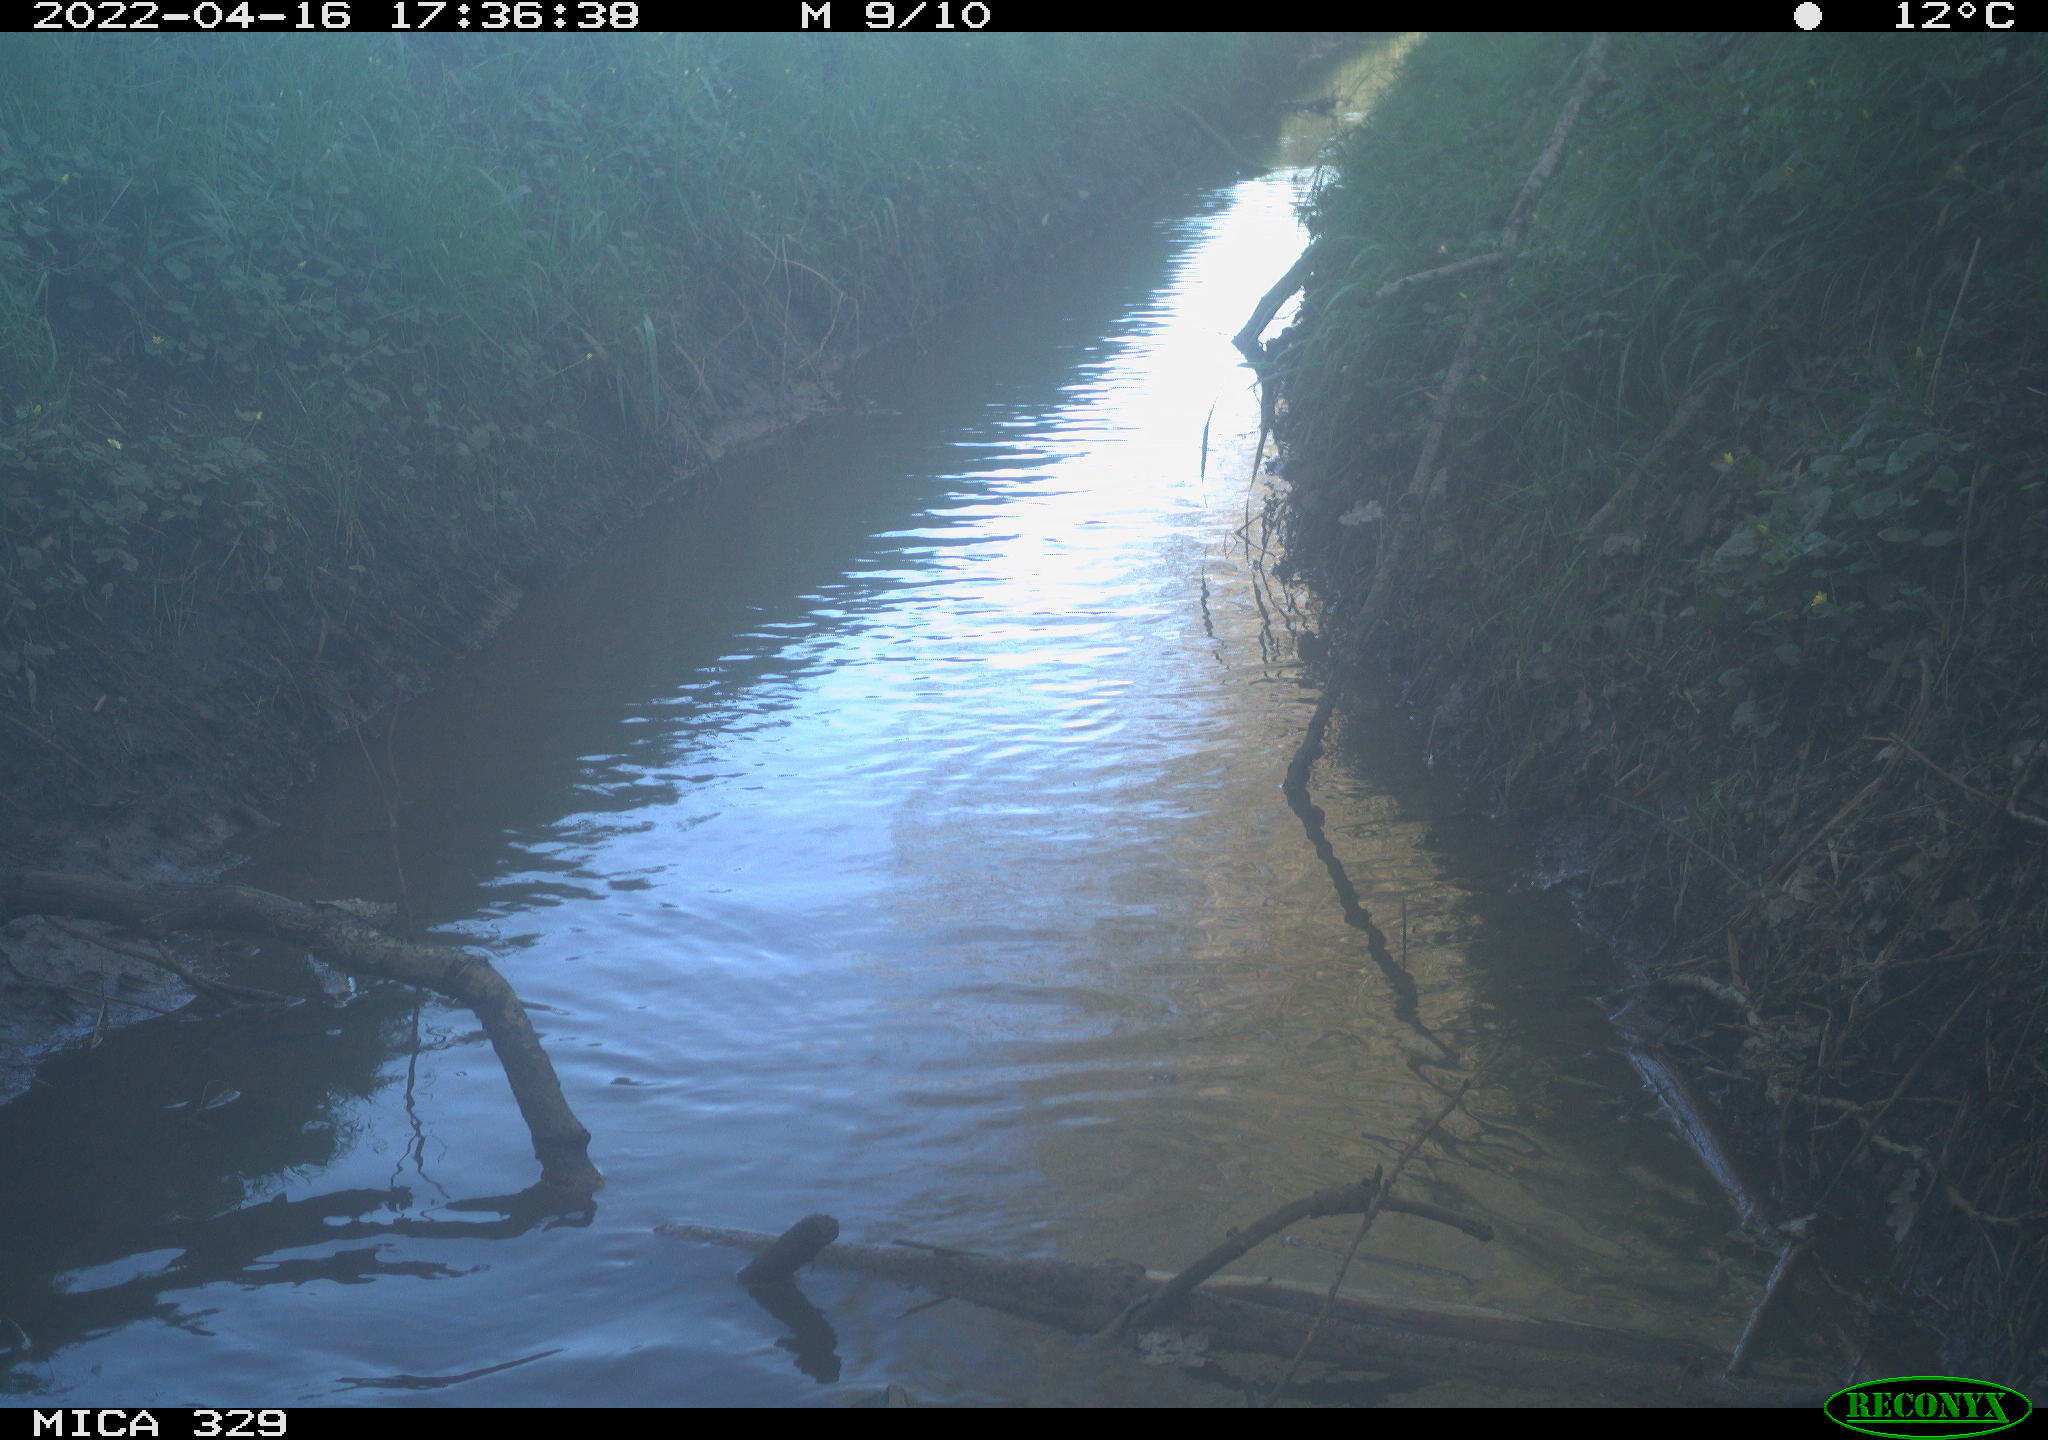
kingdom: Animalia
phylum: Chordata
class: Mammalia
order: Rodentia
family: Cricetidae
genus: Ondatra
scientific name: Ondatra zibethicus
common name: Muskrat
